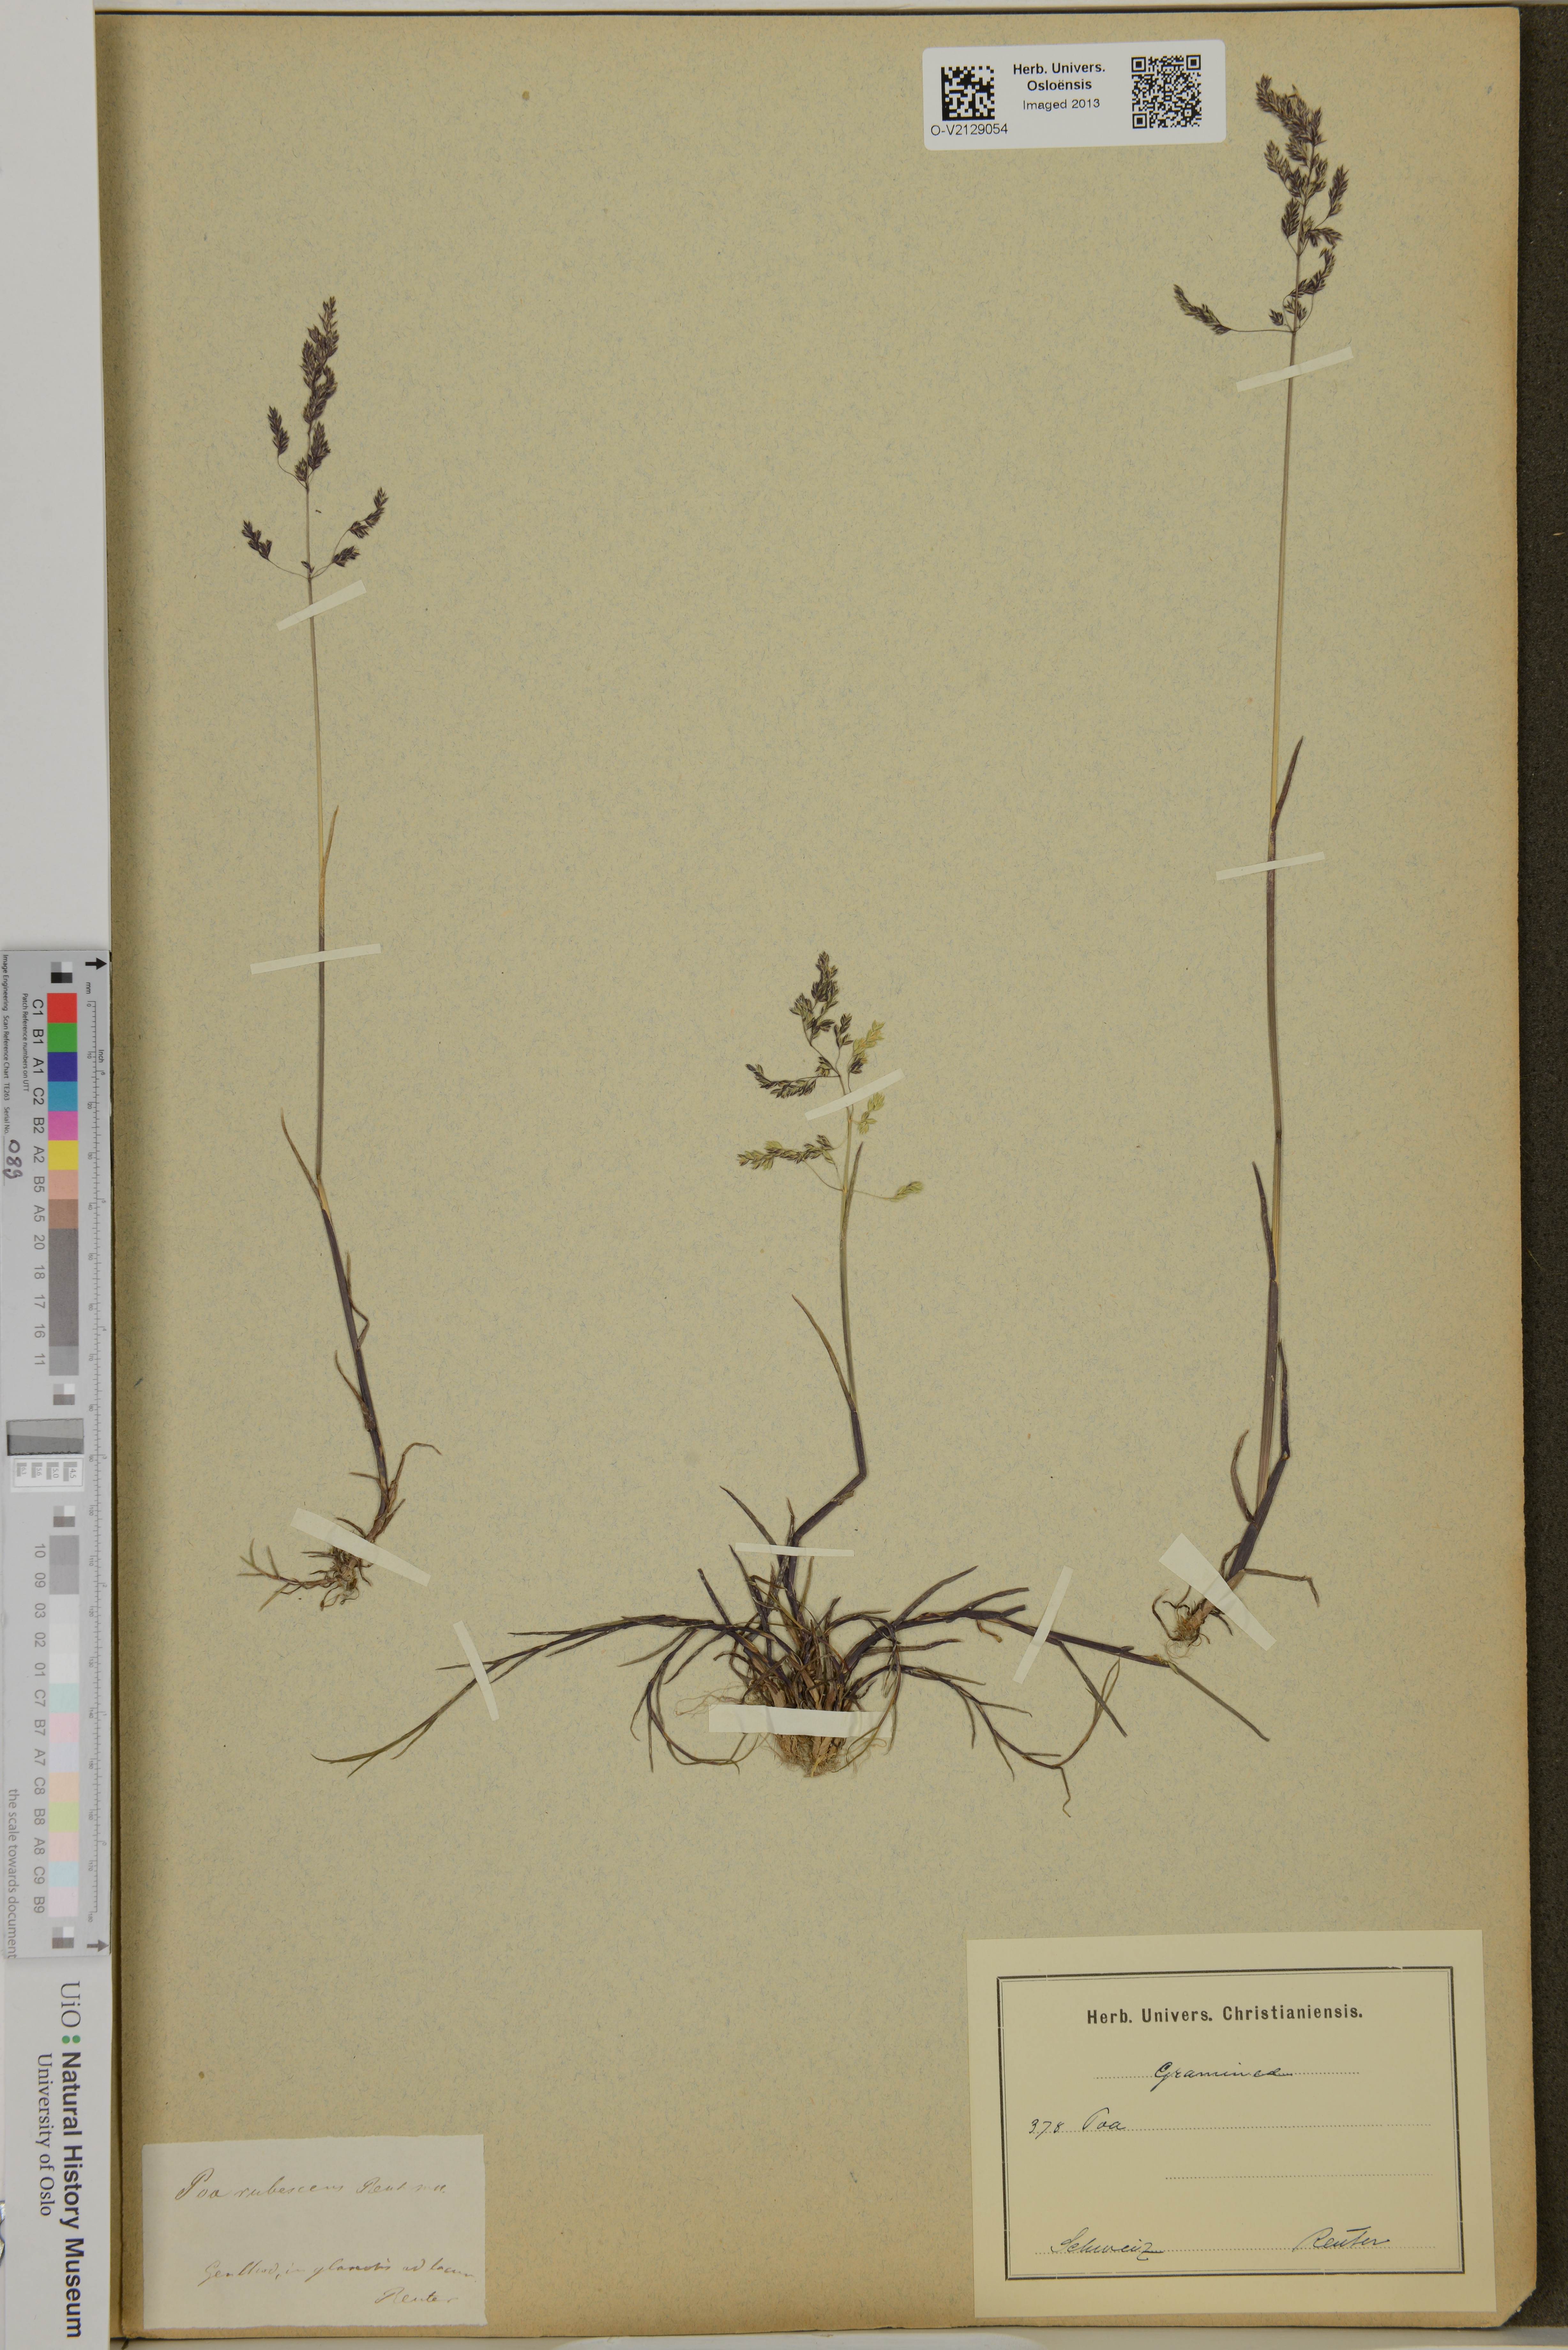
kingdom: Plantae
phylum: Tracheophyta
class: Liliopsida
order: Poales
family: Poaceae
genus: Poa
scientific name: Poa trivialis
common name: Rough bluegrass
